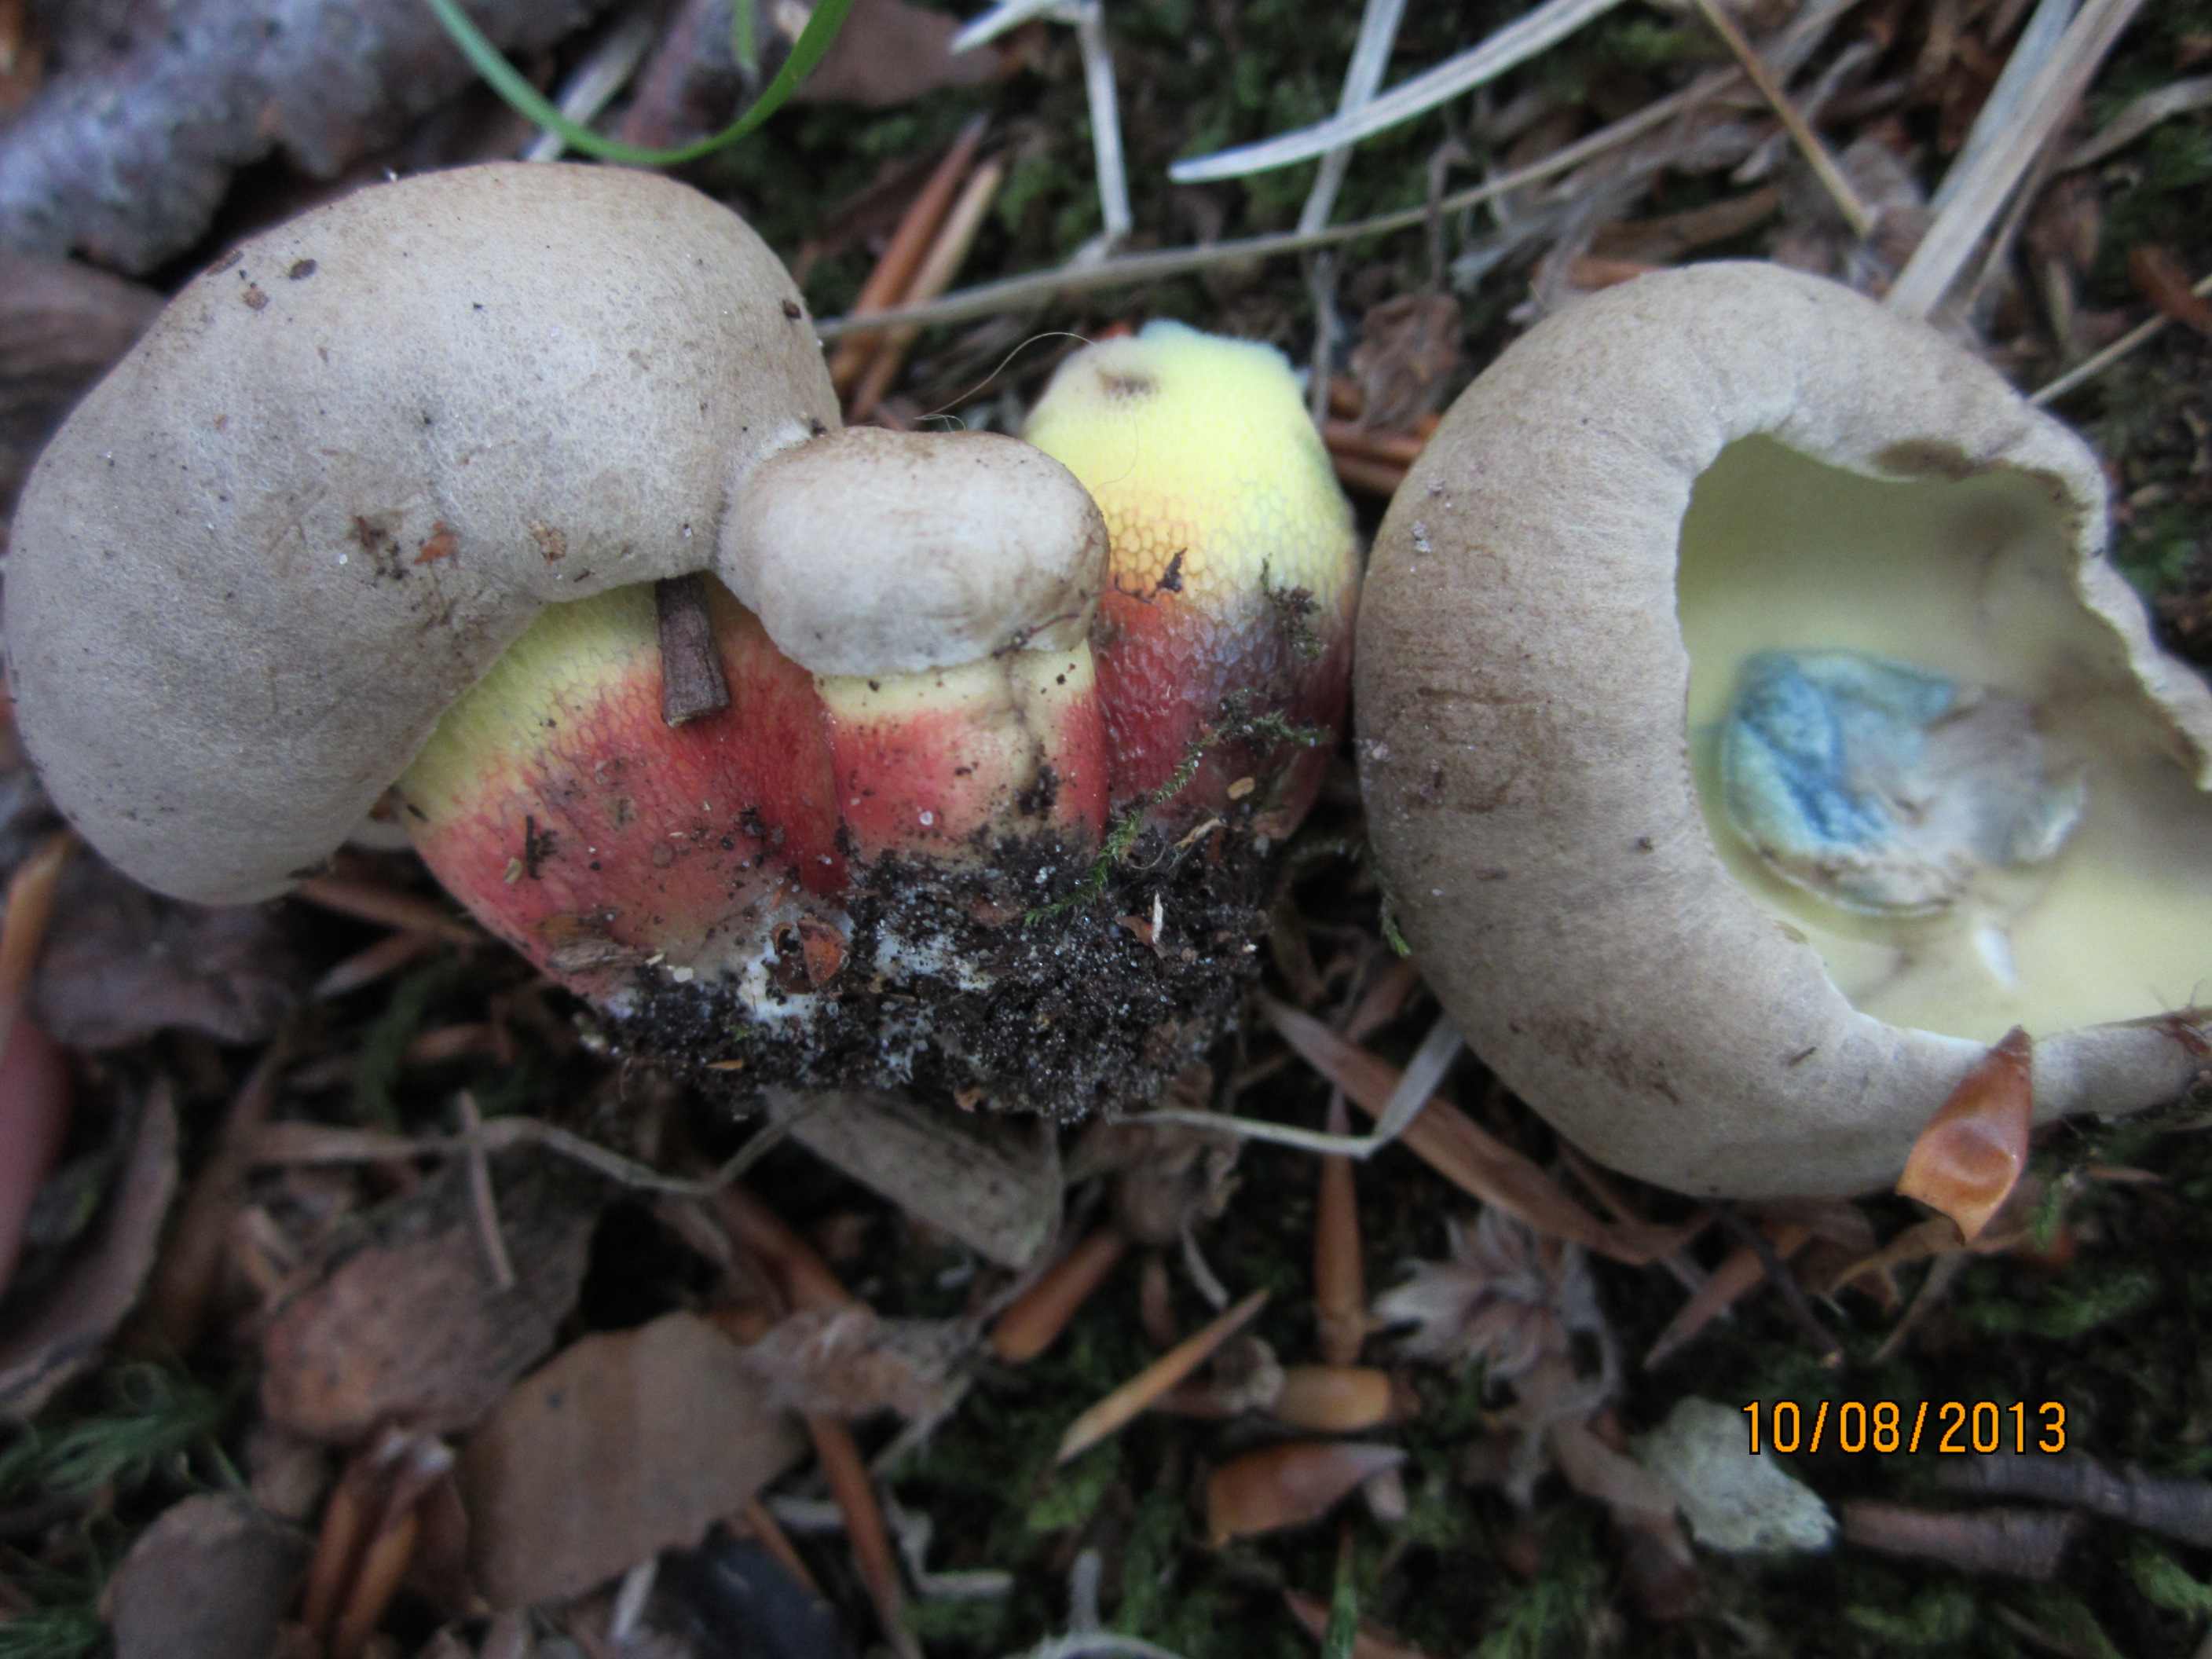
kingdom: Fungi
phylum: Basidiomycota
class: Agaricomycetes
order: Boletales
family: Boletaceae
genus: Caloboletus
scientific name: Caloboletus calopus
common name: skønfodet rørhat
